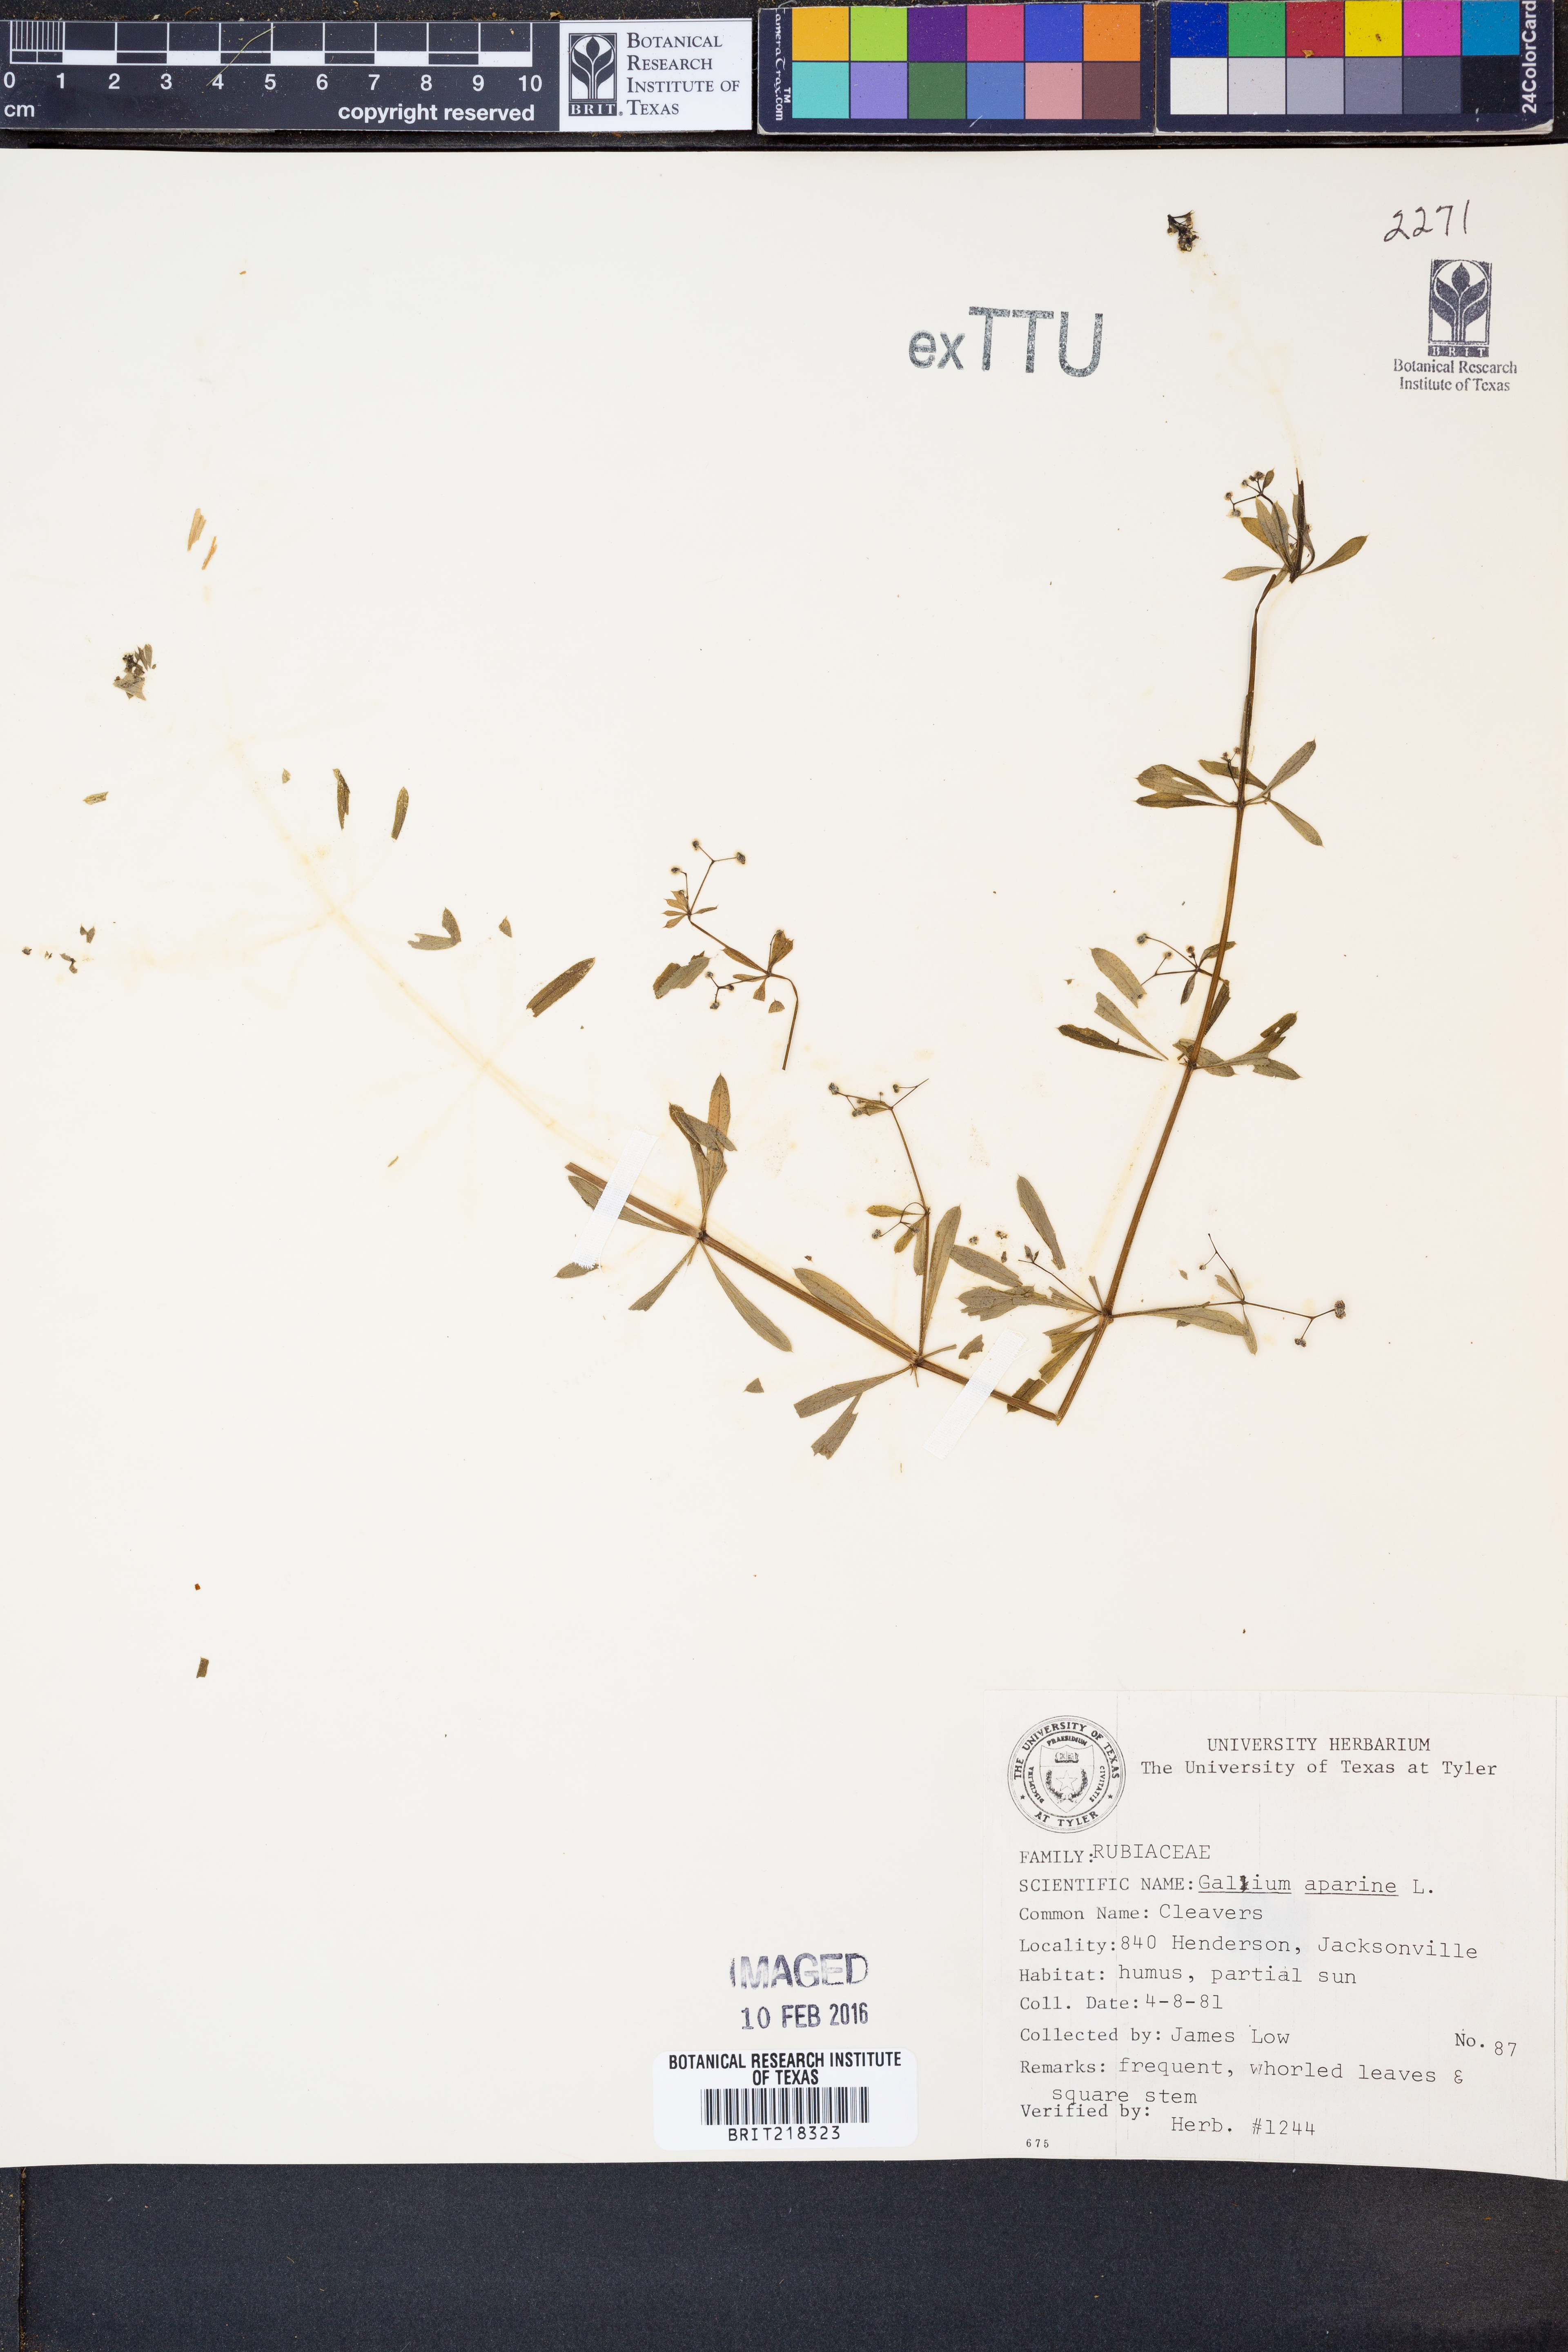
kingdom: Plantae
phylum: Tracheophyta
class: Magnoliopsida
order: Gentianales
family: Rubiaceae
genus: Galium
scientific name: Galium aparine
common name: Cleavers
